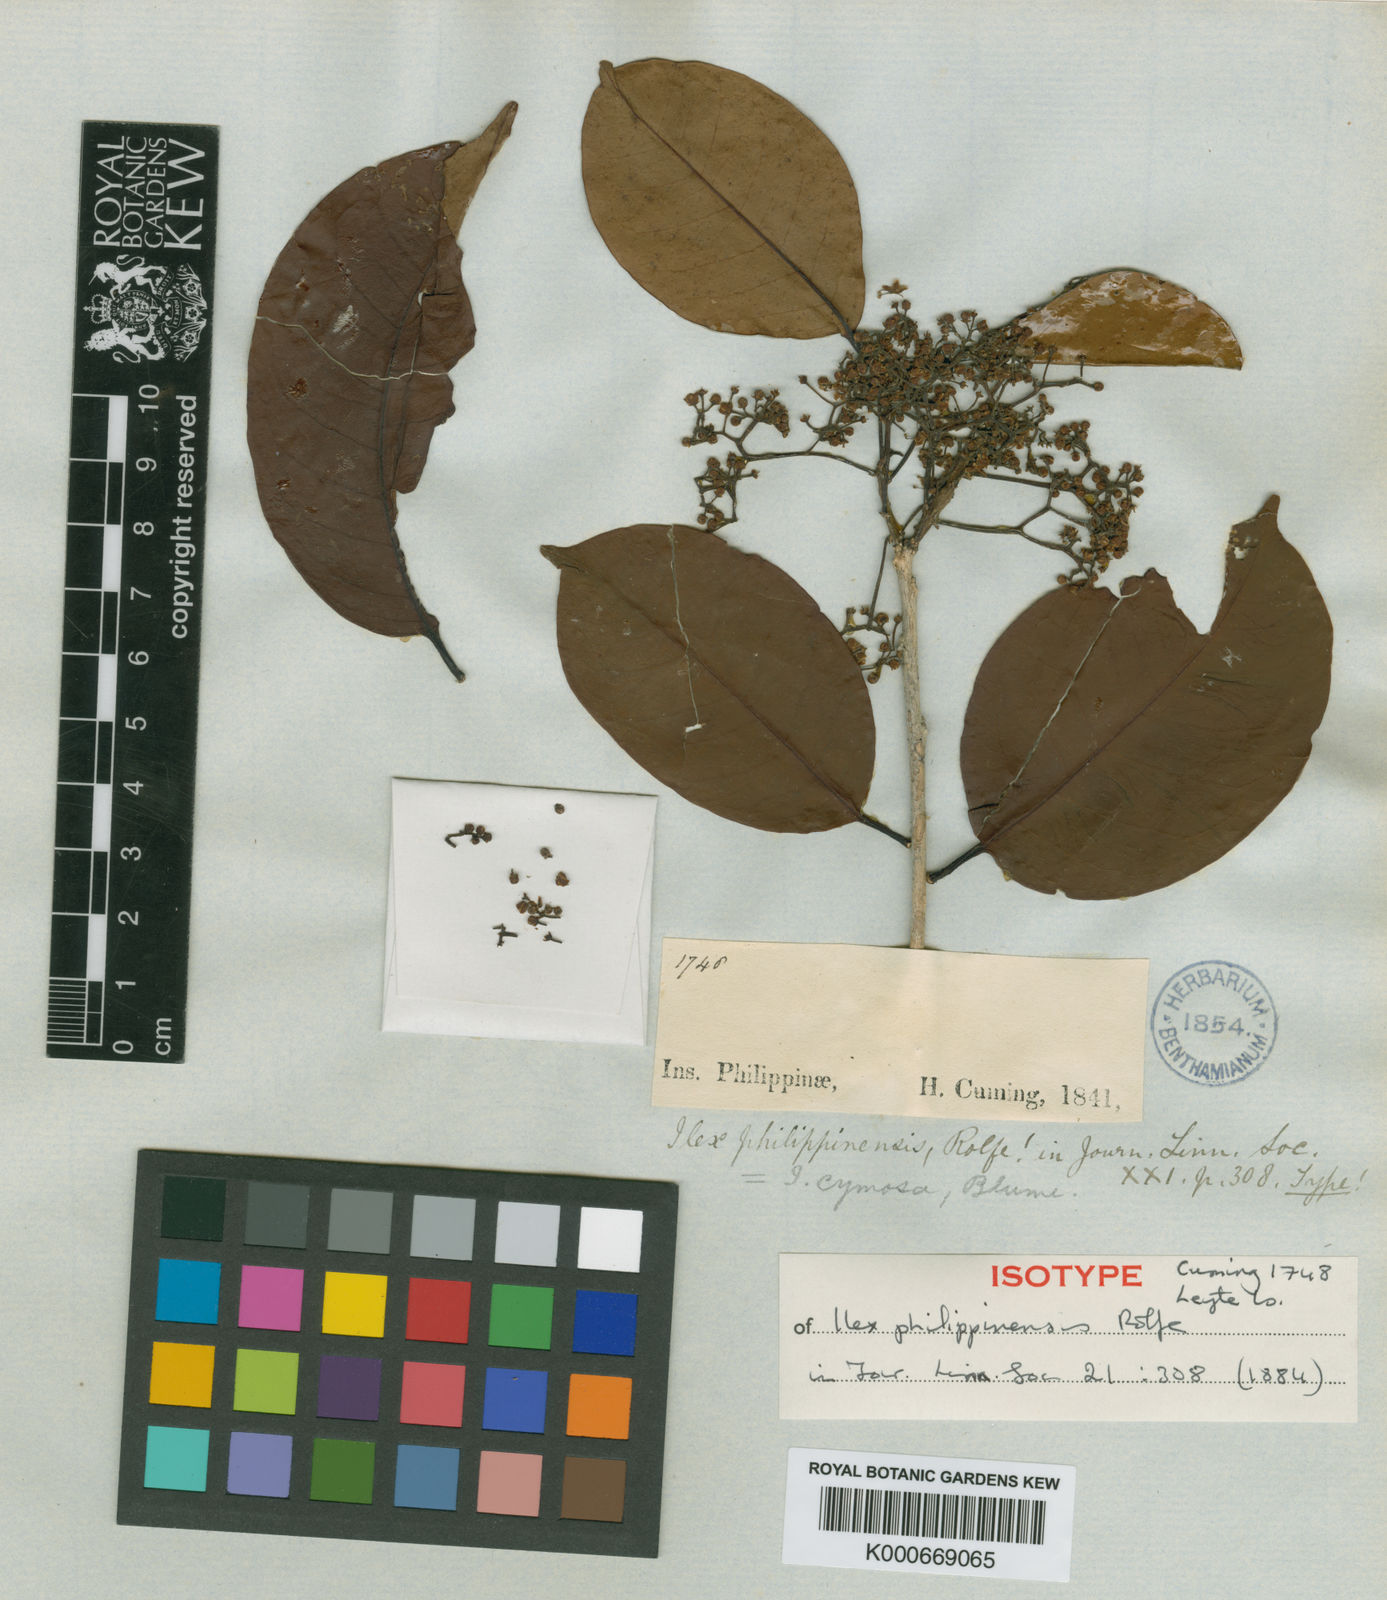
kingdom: Plantae
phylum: Tracheophyta
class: Magnoliopsida
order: Aquifoliales
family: Aquifoliaceae
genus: Ilex
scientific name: Ilex cymosa
